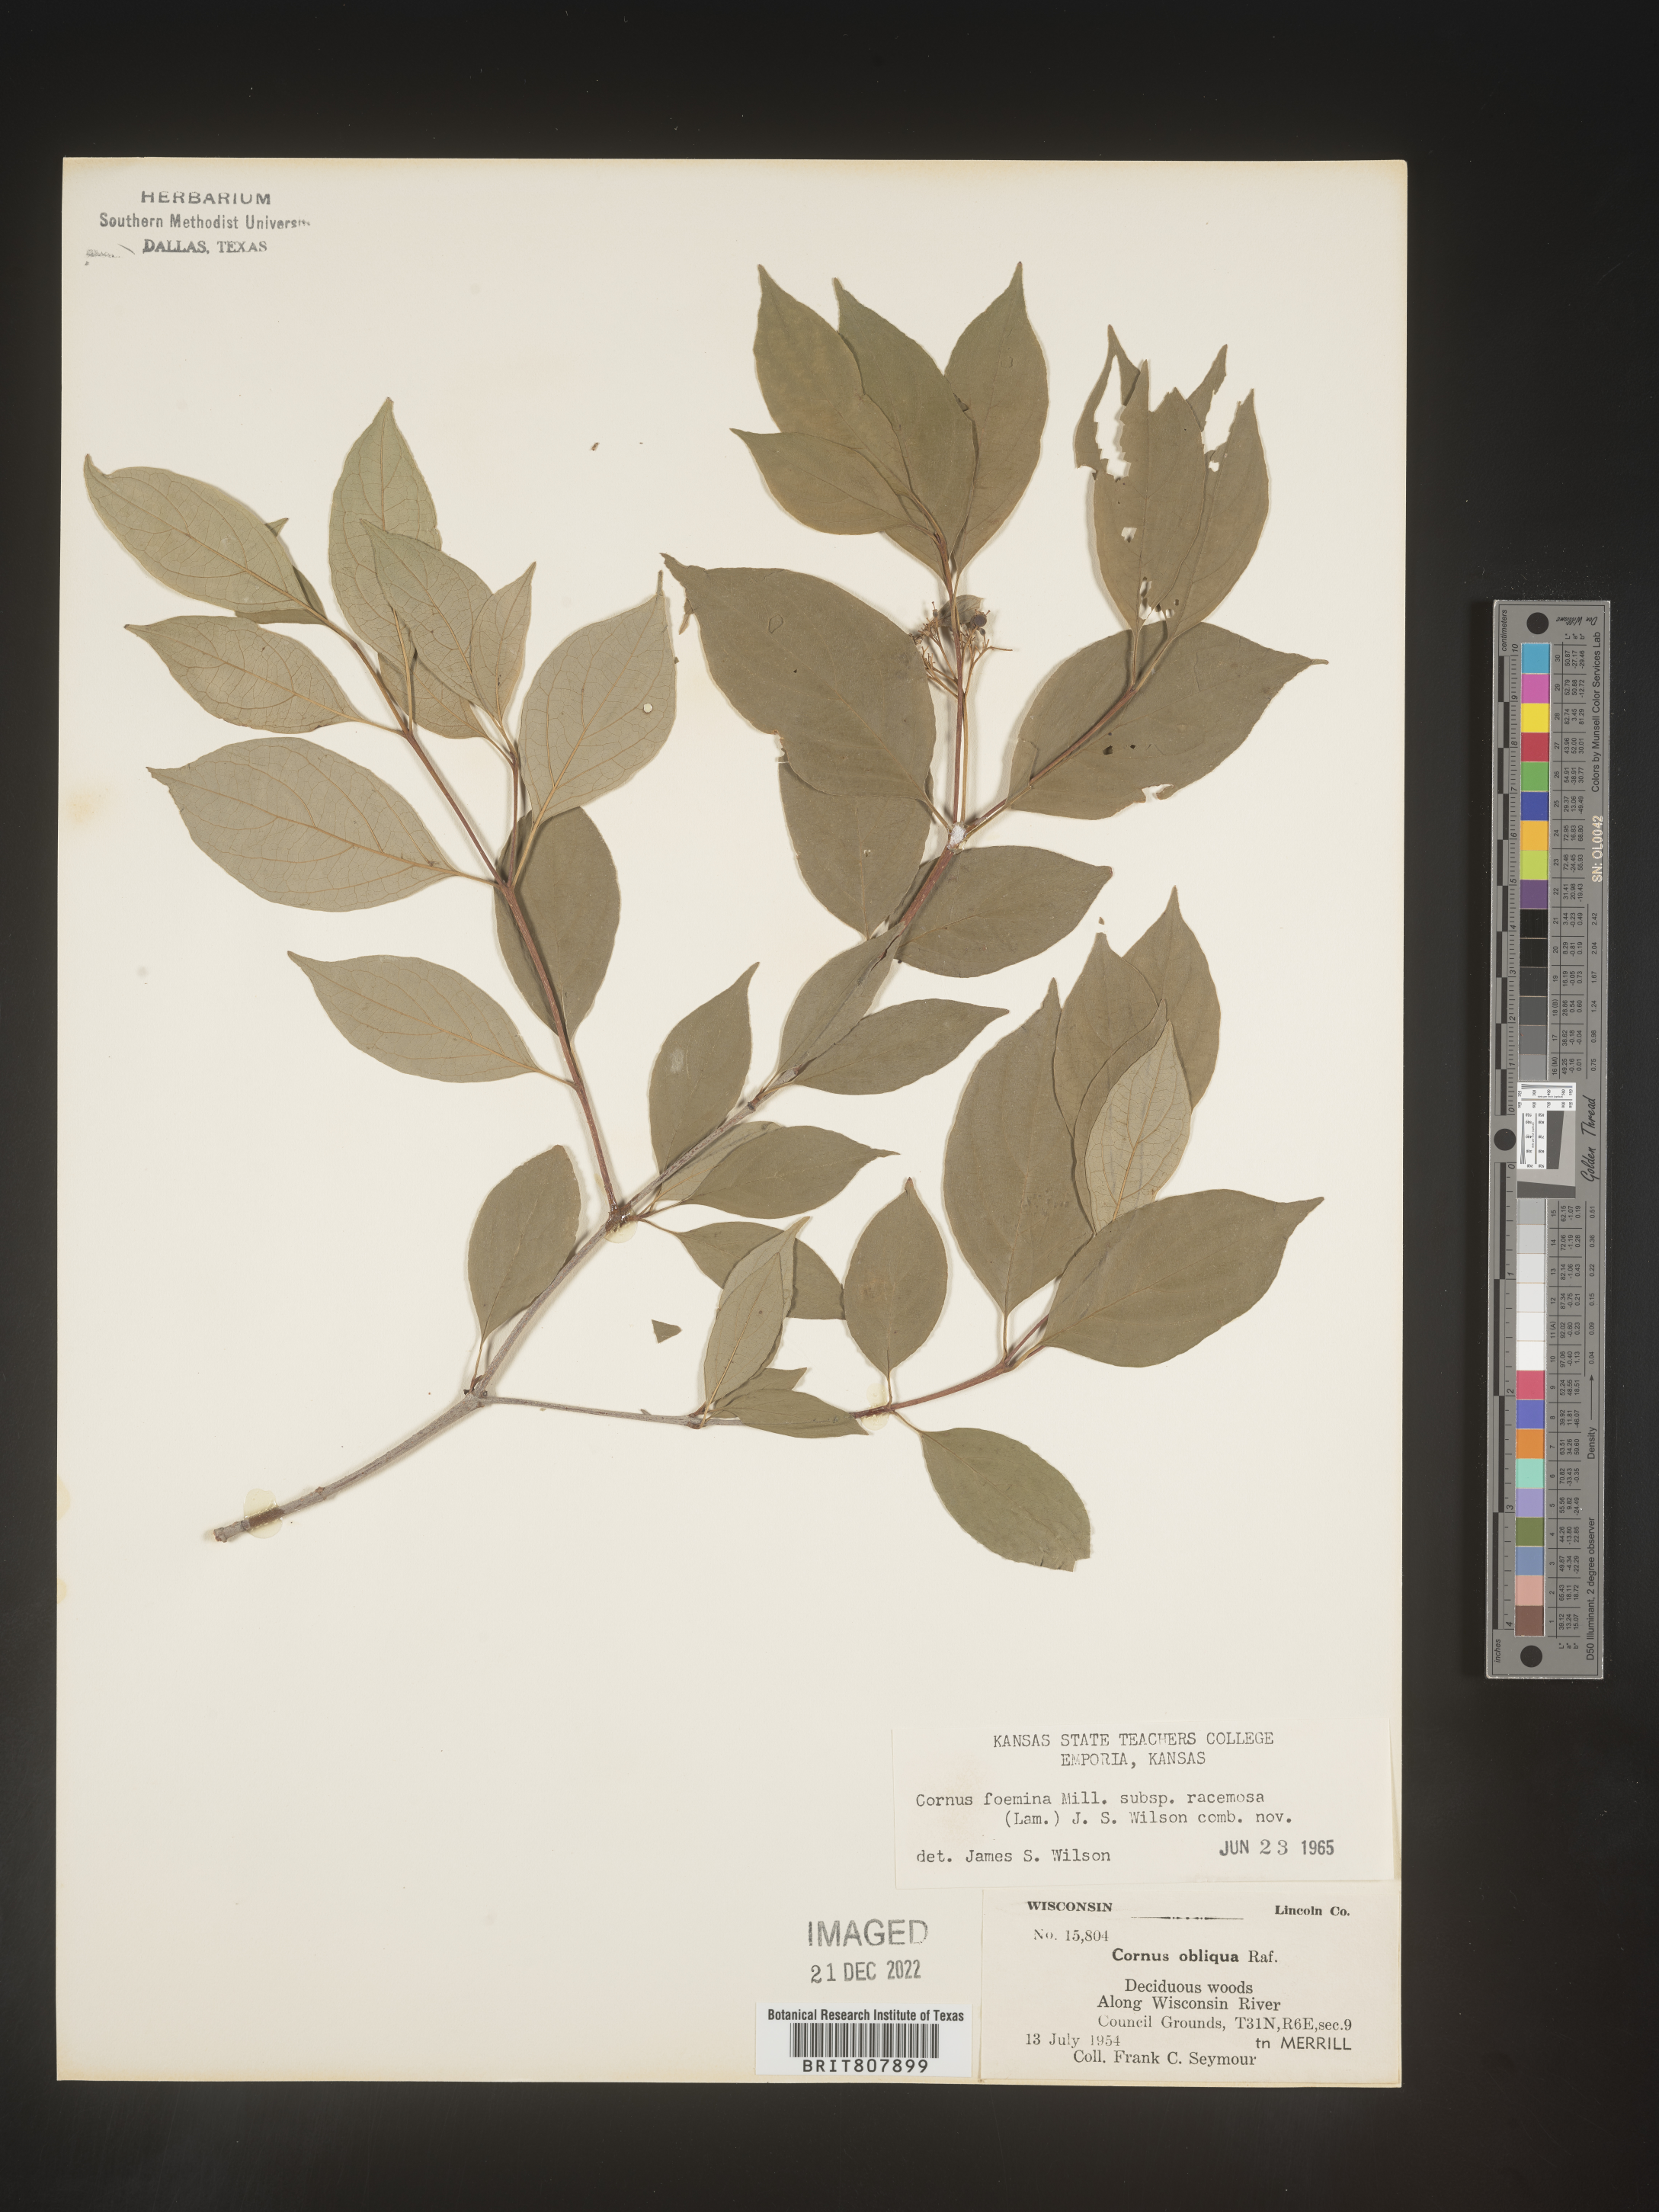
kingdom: Plantae
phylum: Tracheophyta
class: Magnoliopsida
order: Cornales
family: Cornaceae
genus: Cornus
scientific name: Cornus racemosa
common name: Panicled dogwood
